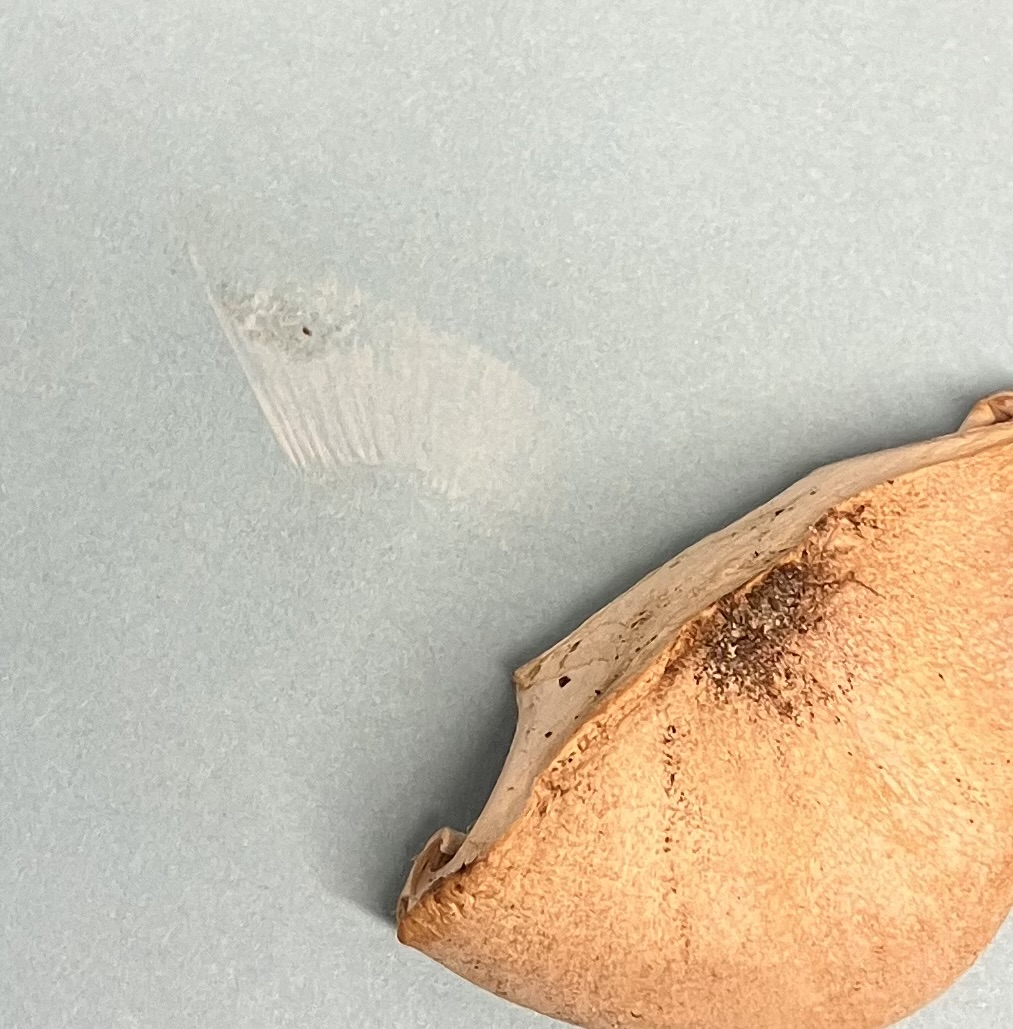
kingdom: Fungi
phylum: Basidiomycota
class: Agaricomycetes
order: Agaricales
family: Tricholomataceae
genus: Infundibulicybe
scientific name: Infundibulicybe geotropa
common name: stor tragthat
